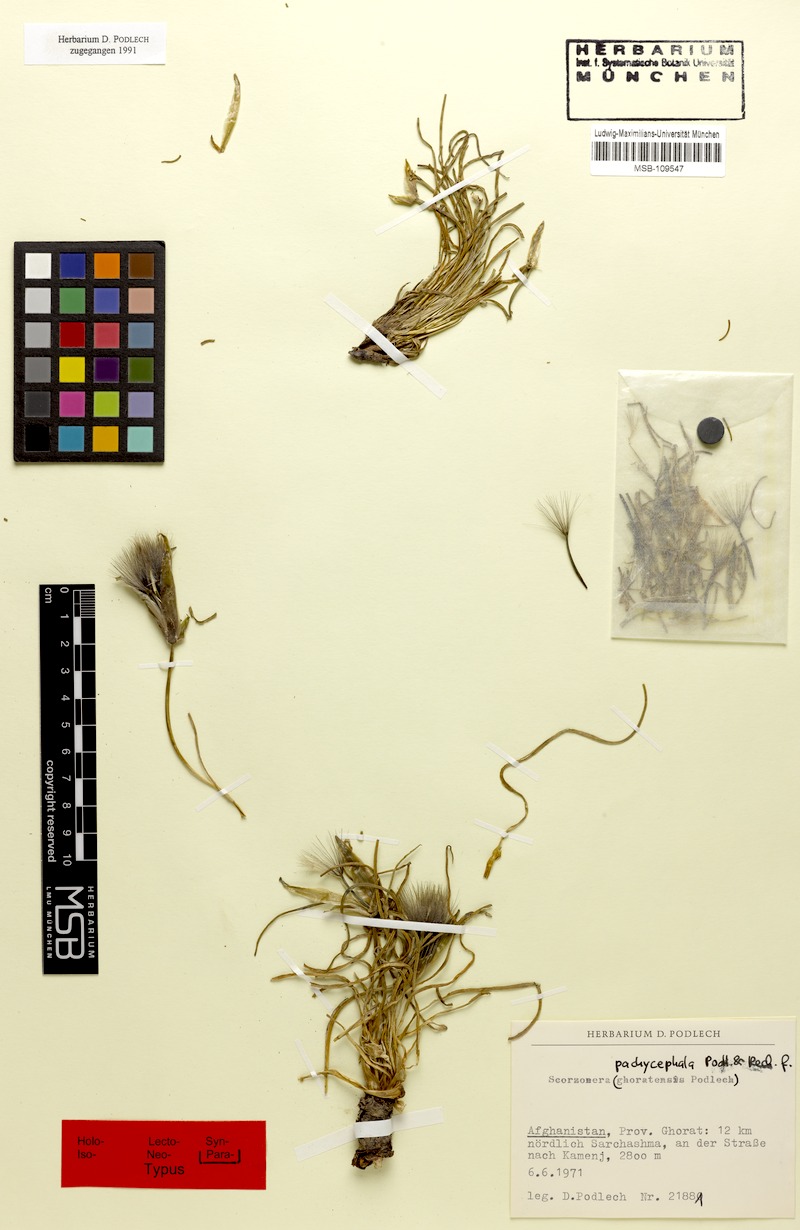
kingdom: Plantae
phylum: Tracheophyta
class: Magnoliopsida
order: Asterales
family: Asteraceae
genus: Pseudopodospermum
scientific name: Pseudopodospermum pachycephalum
